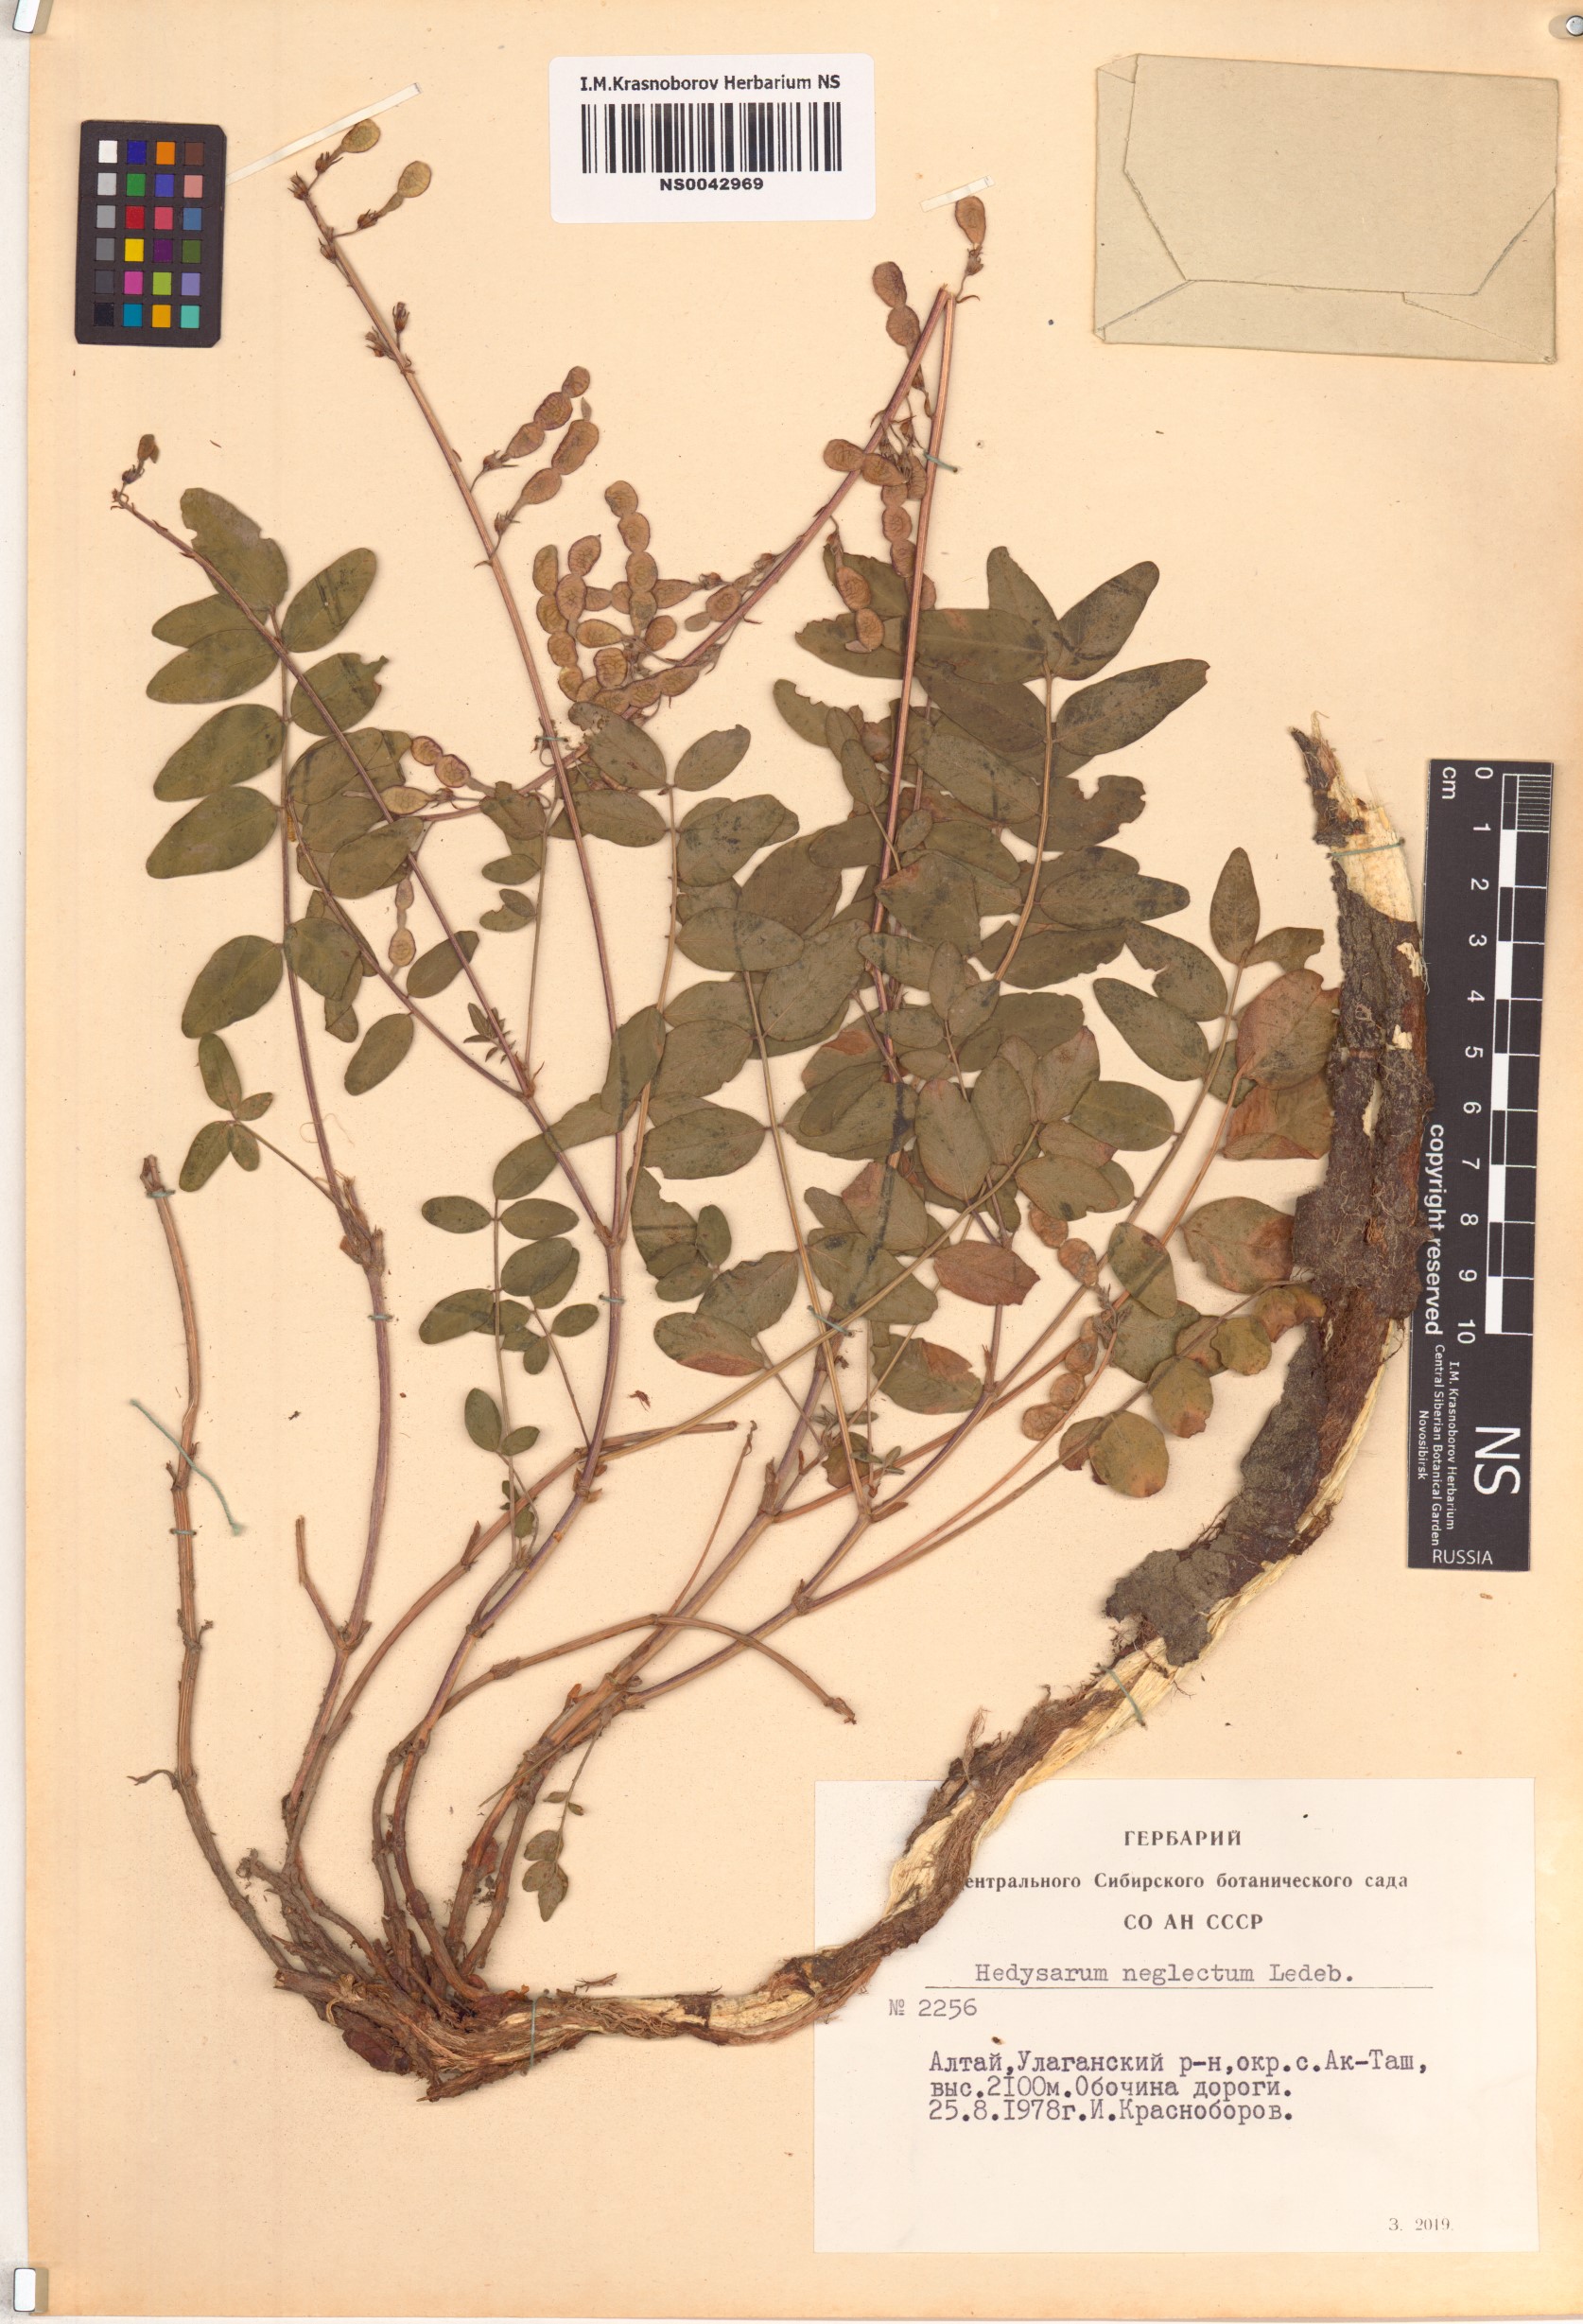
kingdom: Plantae
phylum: Tracheophyta
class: Magnoliopsida
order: Fabales
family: Fabaceae
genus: Hedysarum
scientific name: Hedysarum neglectum
